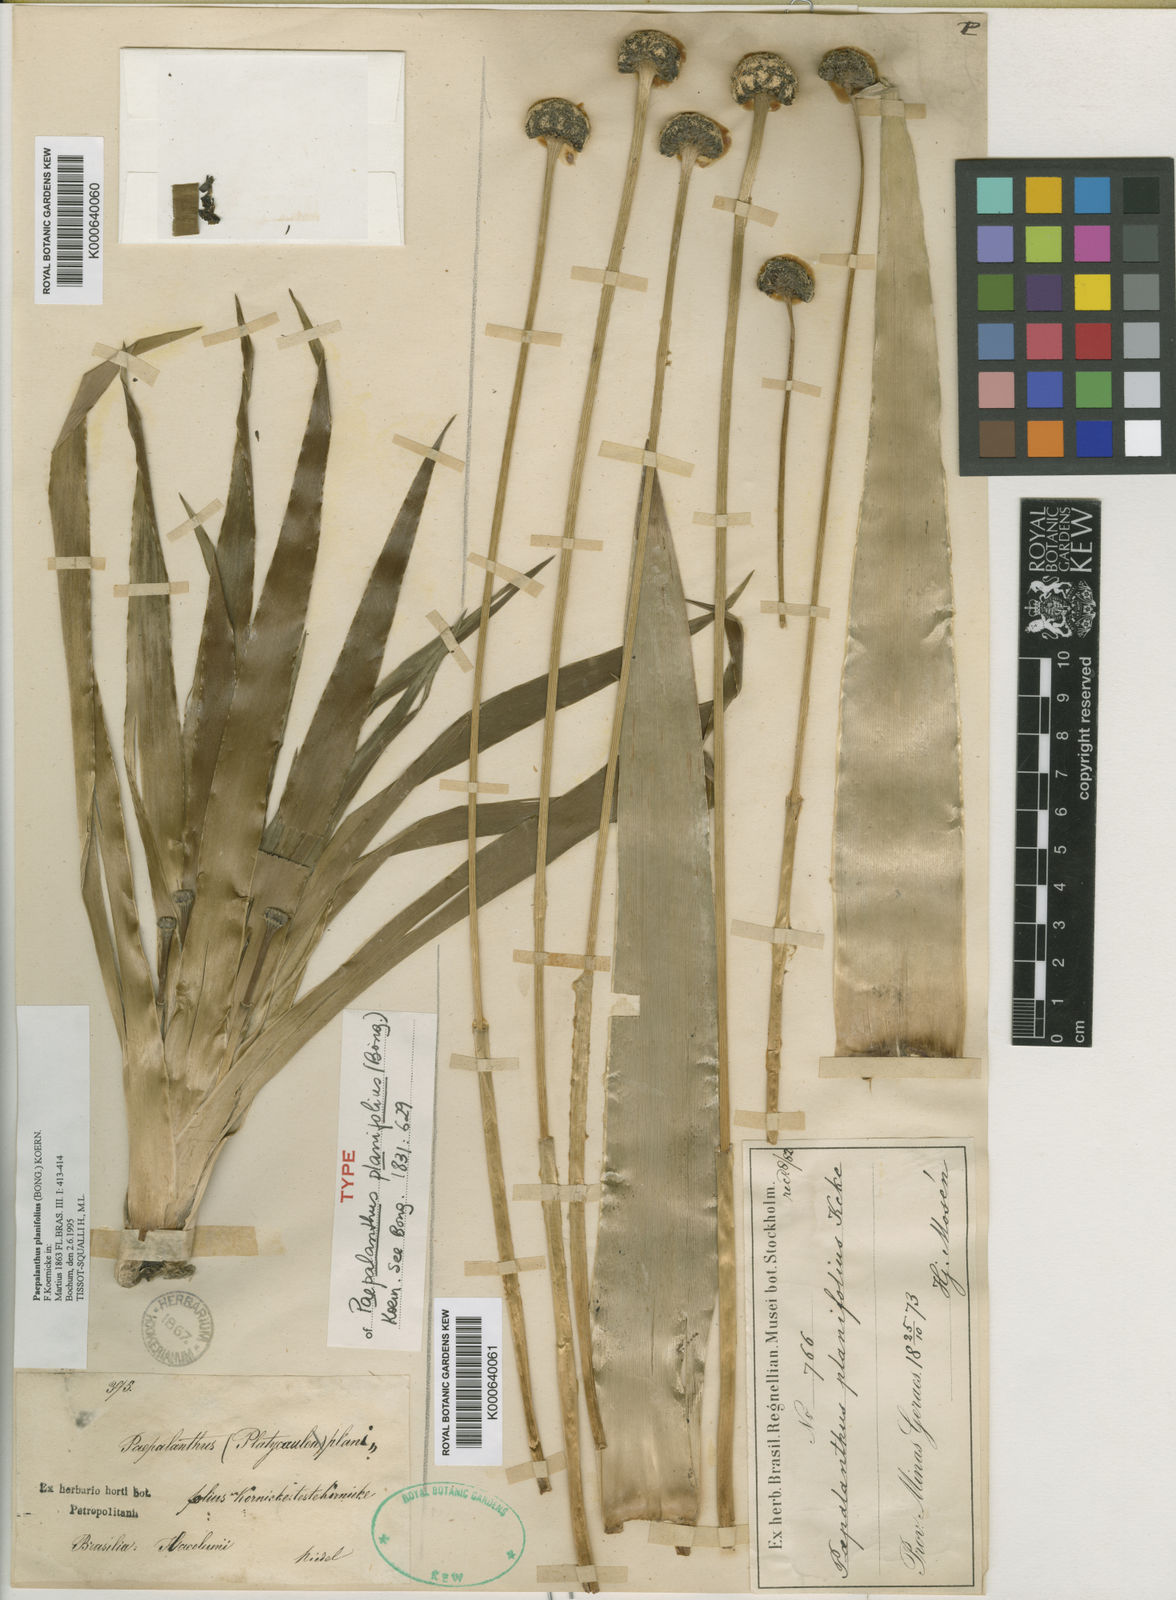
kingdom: Plantae
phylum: Tracheophyta
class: Liliopsida
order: Poales
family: Eriocaulaceae
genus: Paepalanthus
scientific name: Paepalanthus
